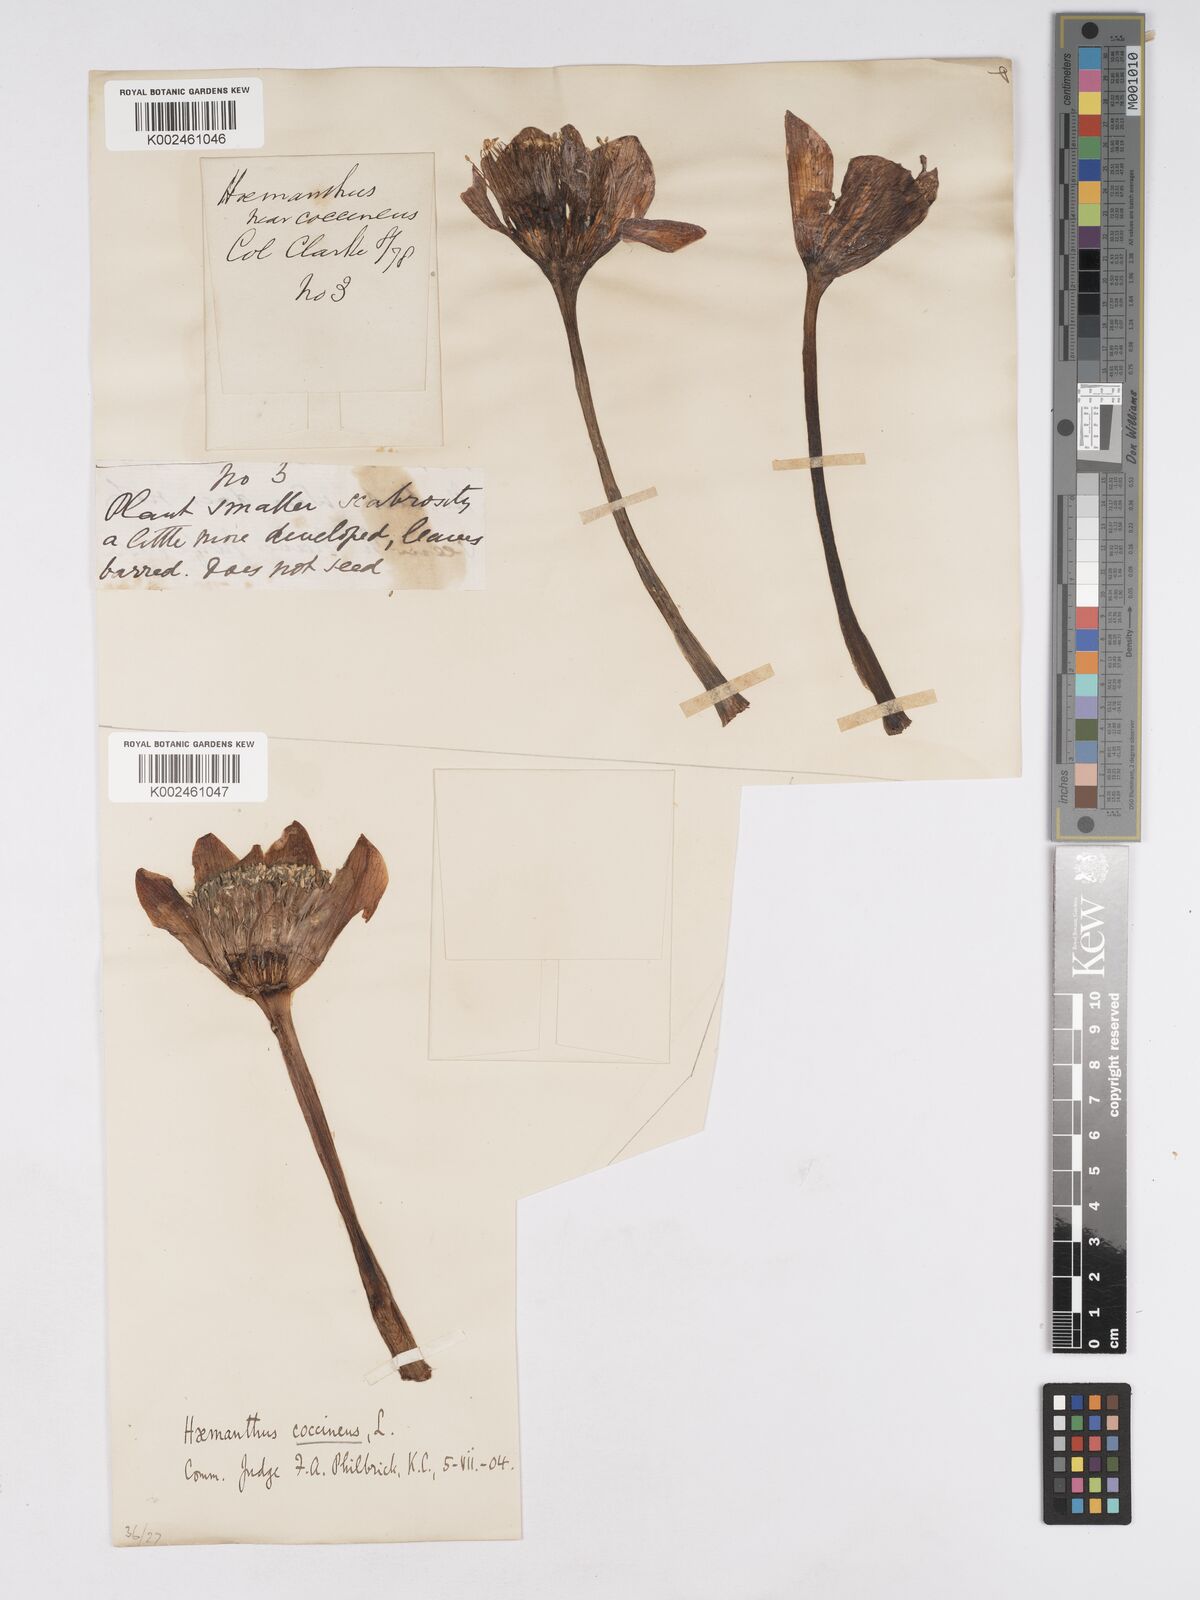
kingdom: Plantae
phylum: Tracheophyta
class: Liliopsida
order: Asparagales
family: Amaryllidaceae
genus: Haemanthus
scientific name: Haemanthus coccineus
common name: Cape-tulip
